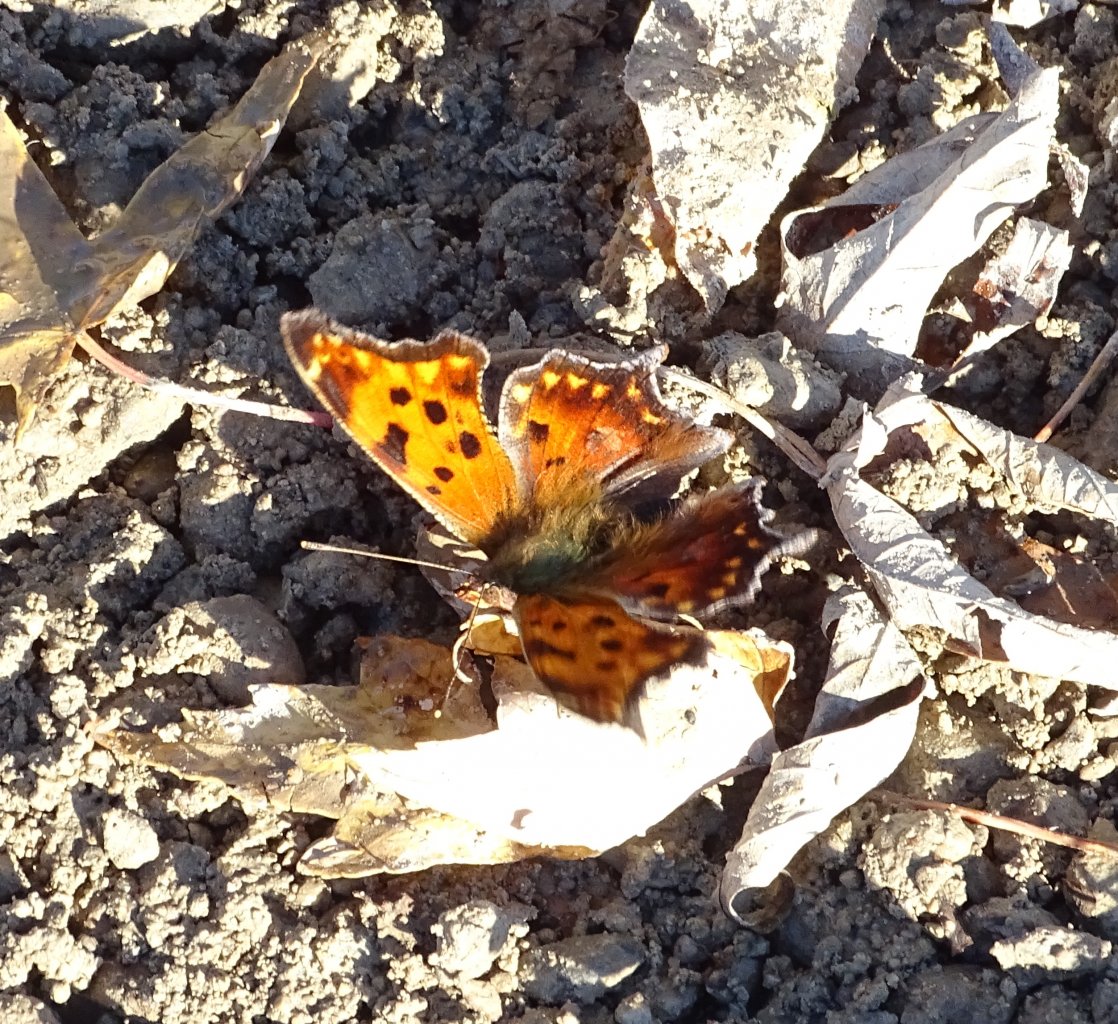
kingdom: Animalia
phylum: Arthropoda
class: Insecta
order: Lepidoptera
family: Nymphalidae
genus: Polygonia
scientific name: Polygonia comma
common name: Eastern Comma
